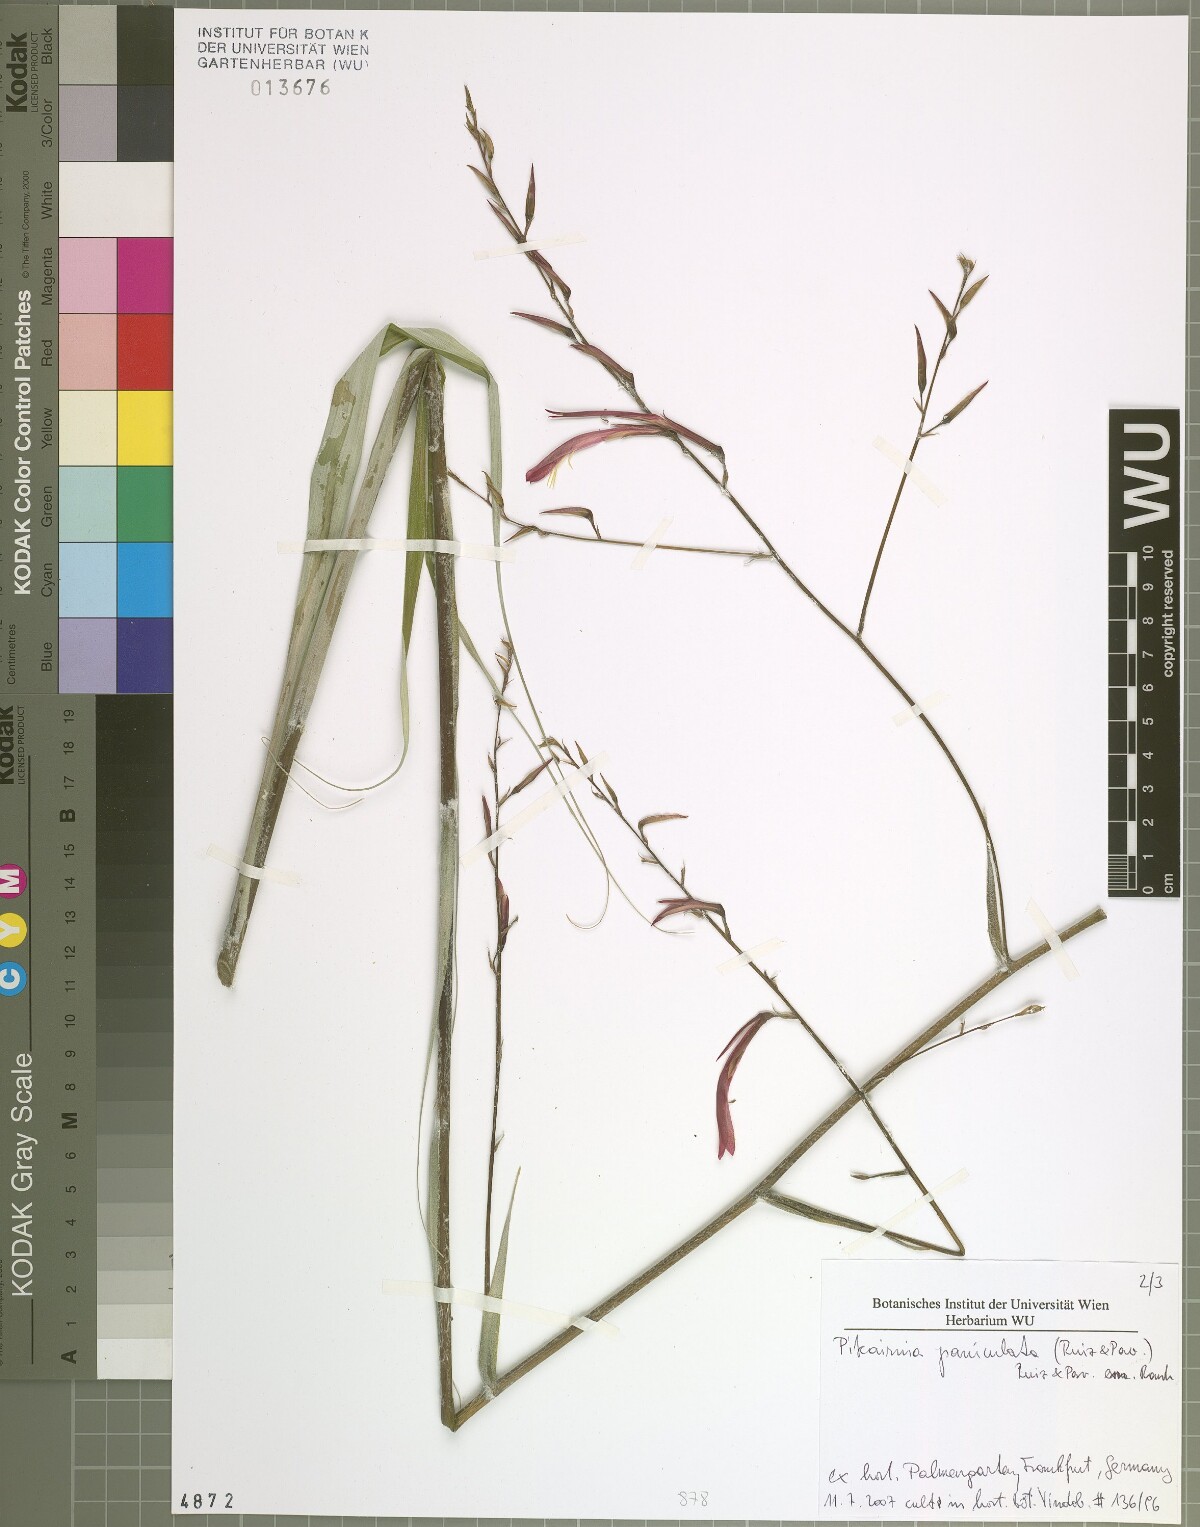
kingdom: Plantae
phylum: Tracheophyta
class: Liliopsida
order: Poales
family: Bromeliaceae
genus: Pitcairnia
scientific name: Pitcairnia paniculata
